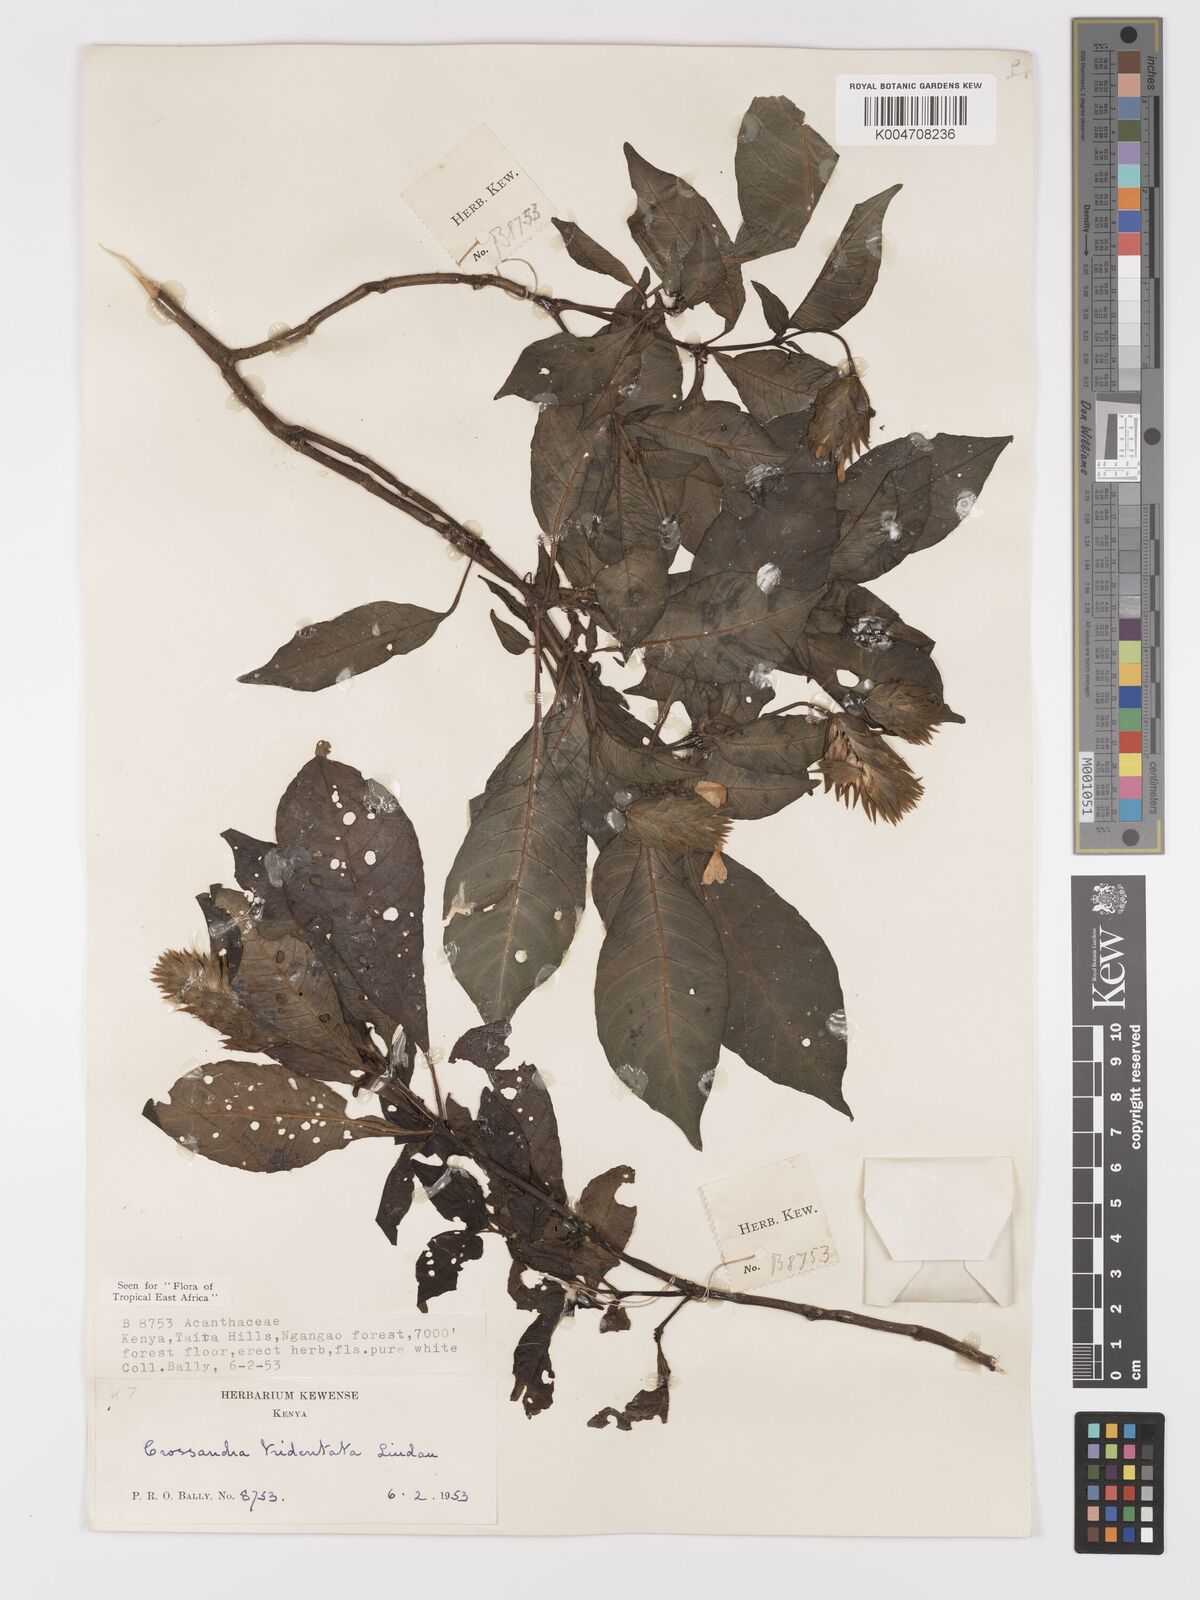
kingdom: Plantae
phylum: Tracheophyta
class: Magnoliopsida
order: Lamiales
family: Acanthaceae
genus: Crossandra
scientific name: Crossandra tridentata
